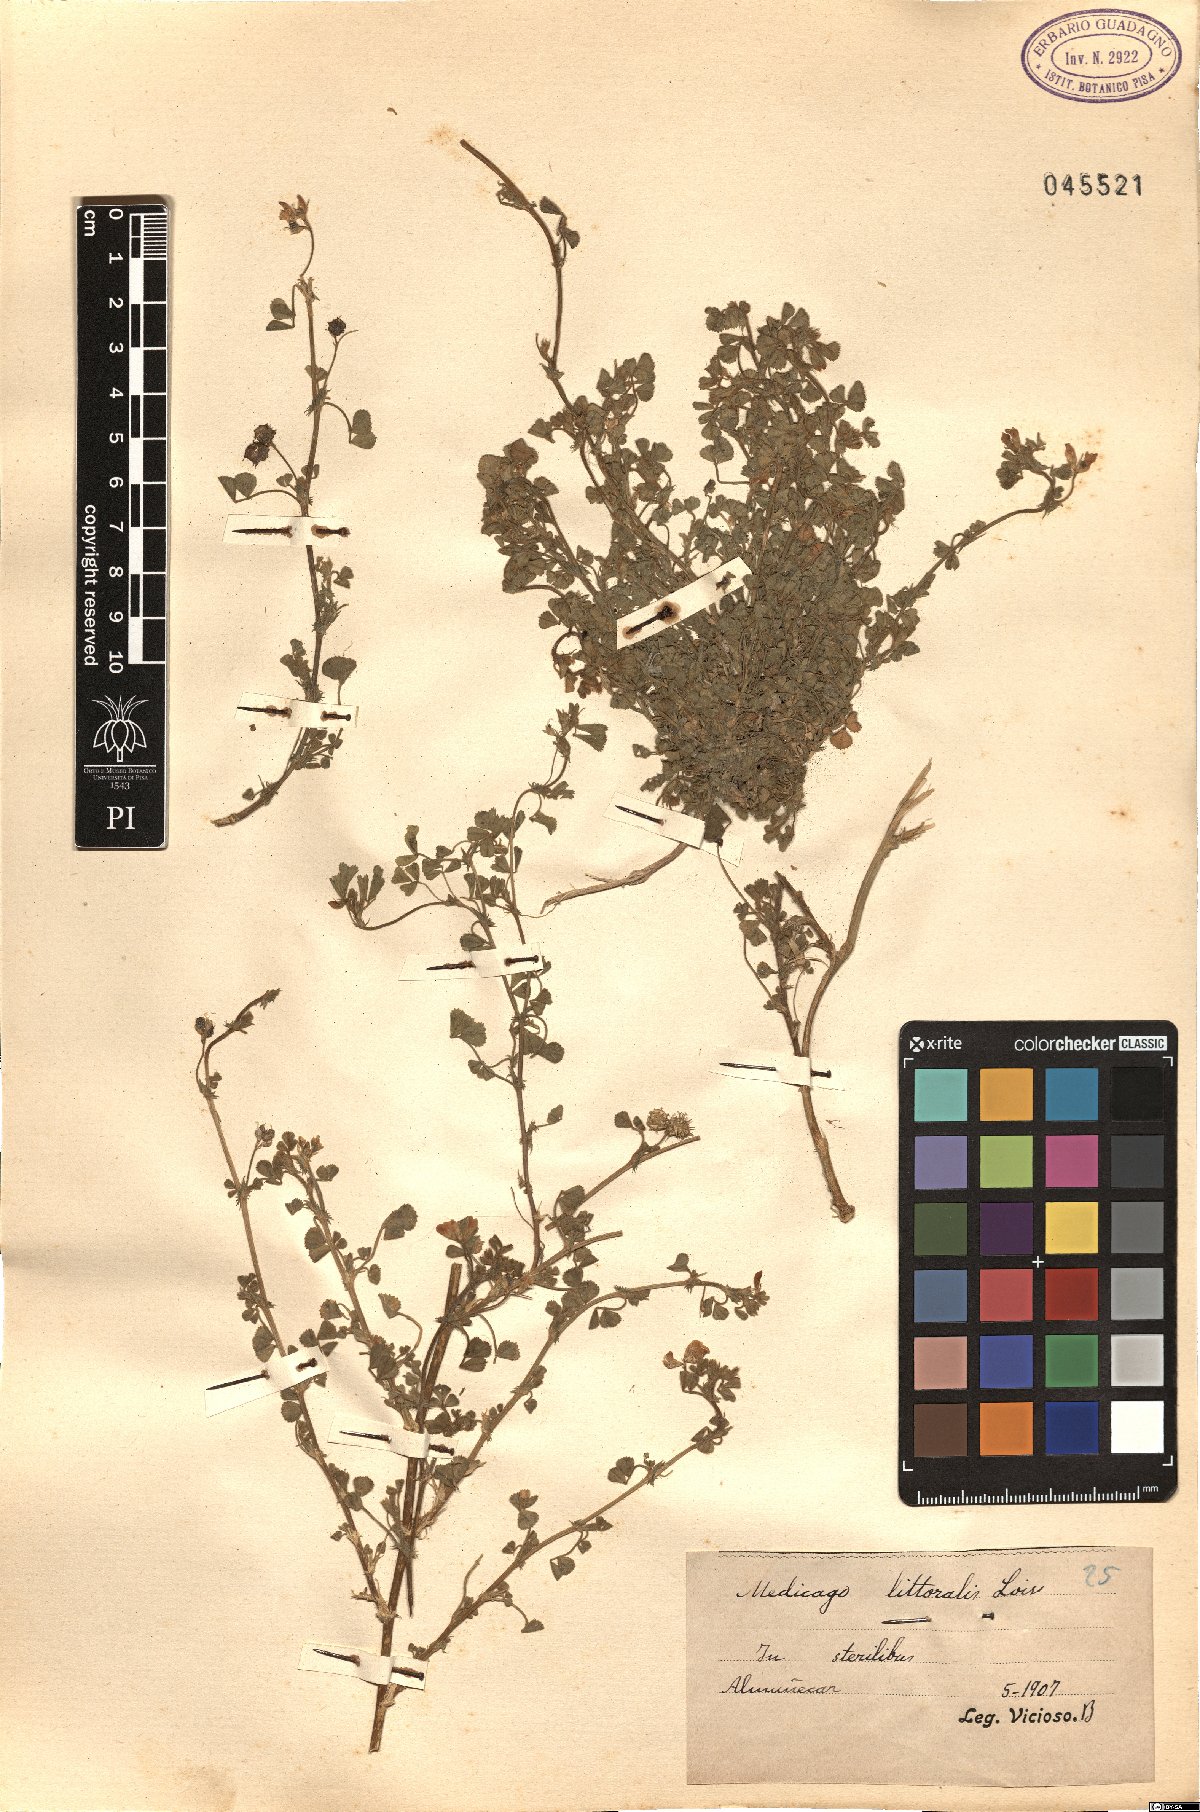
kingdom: Plantae
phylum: Tracheophyta
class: Magnoliopsida
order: Fabales
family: Fabaceae
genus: Medicago
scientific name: Medicago littoralis
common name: Shore medick
